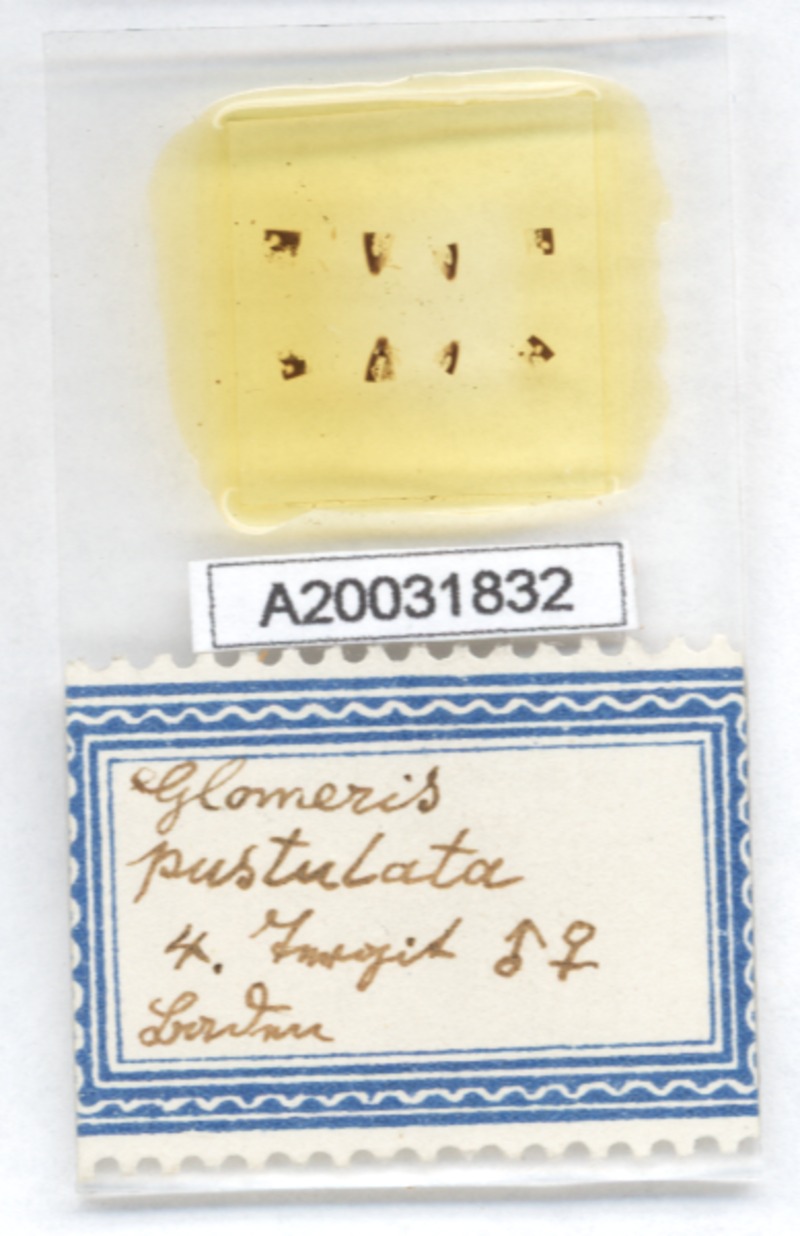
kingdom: Animalia
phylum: Arthropoda
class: Diplopoda
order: Glomerida
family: Glomeridae
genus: Glomeris
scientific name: Glomeris pustulata
